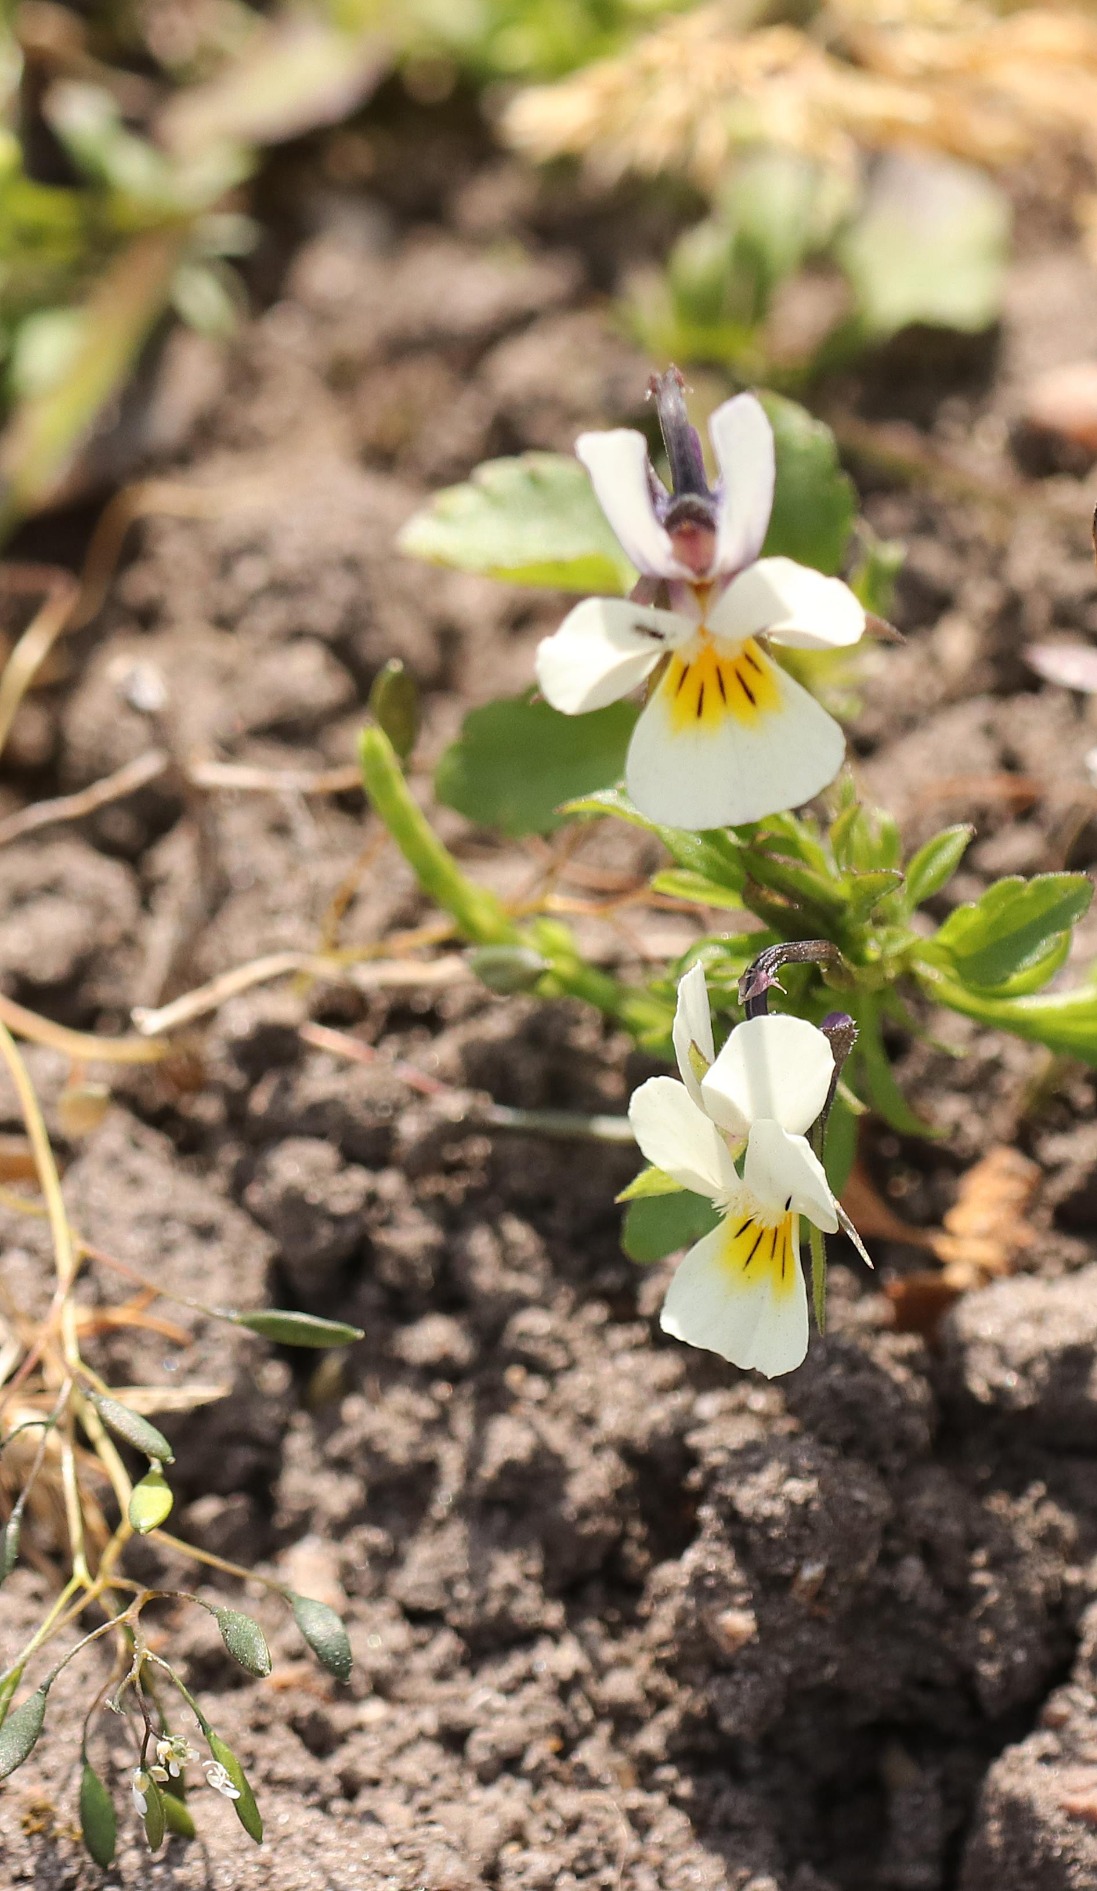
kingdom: Plantae
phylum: Tracheophyta
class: Magnoliopsida
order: Malpighiales
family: Violaceae
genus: Viola
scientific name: Viola arvensis
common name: Ager-stedmoderblomst
